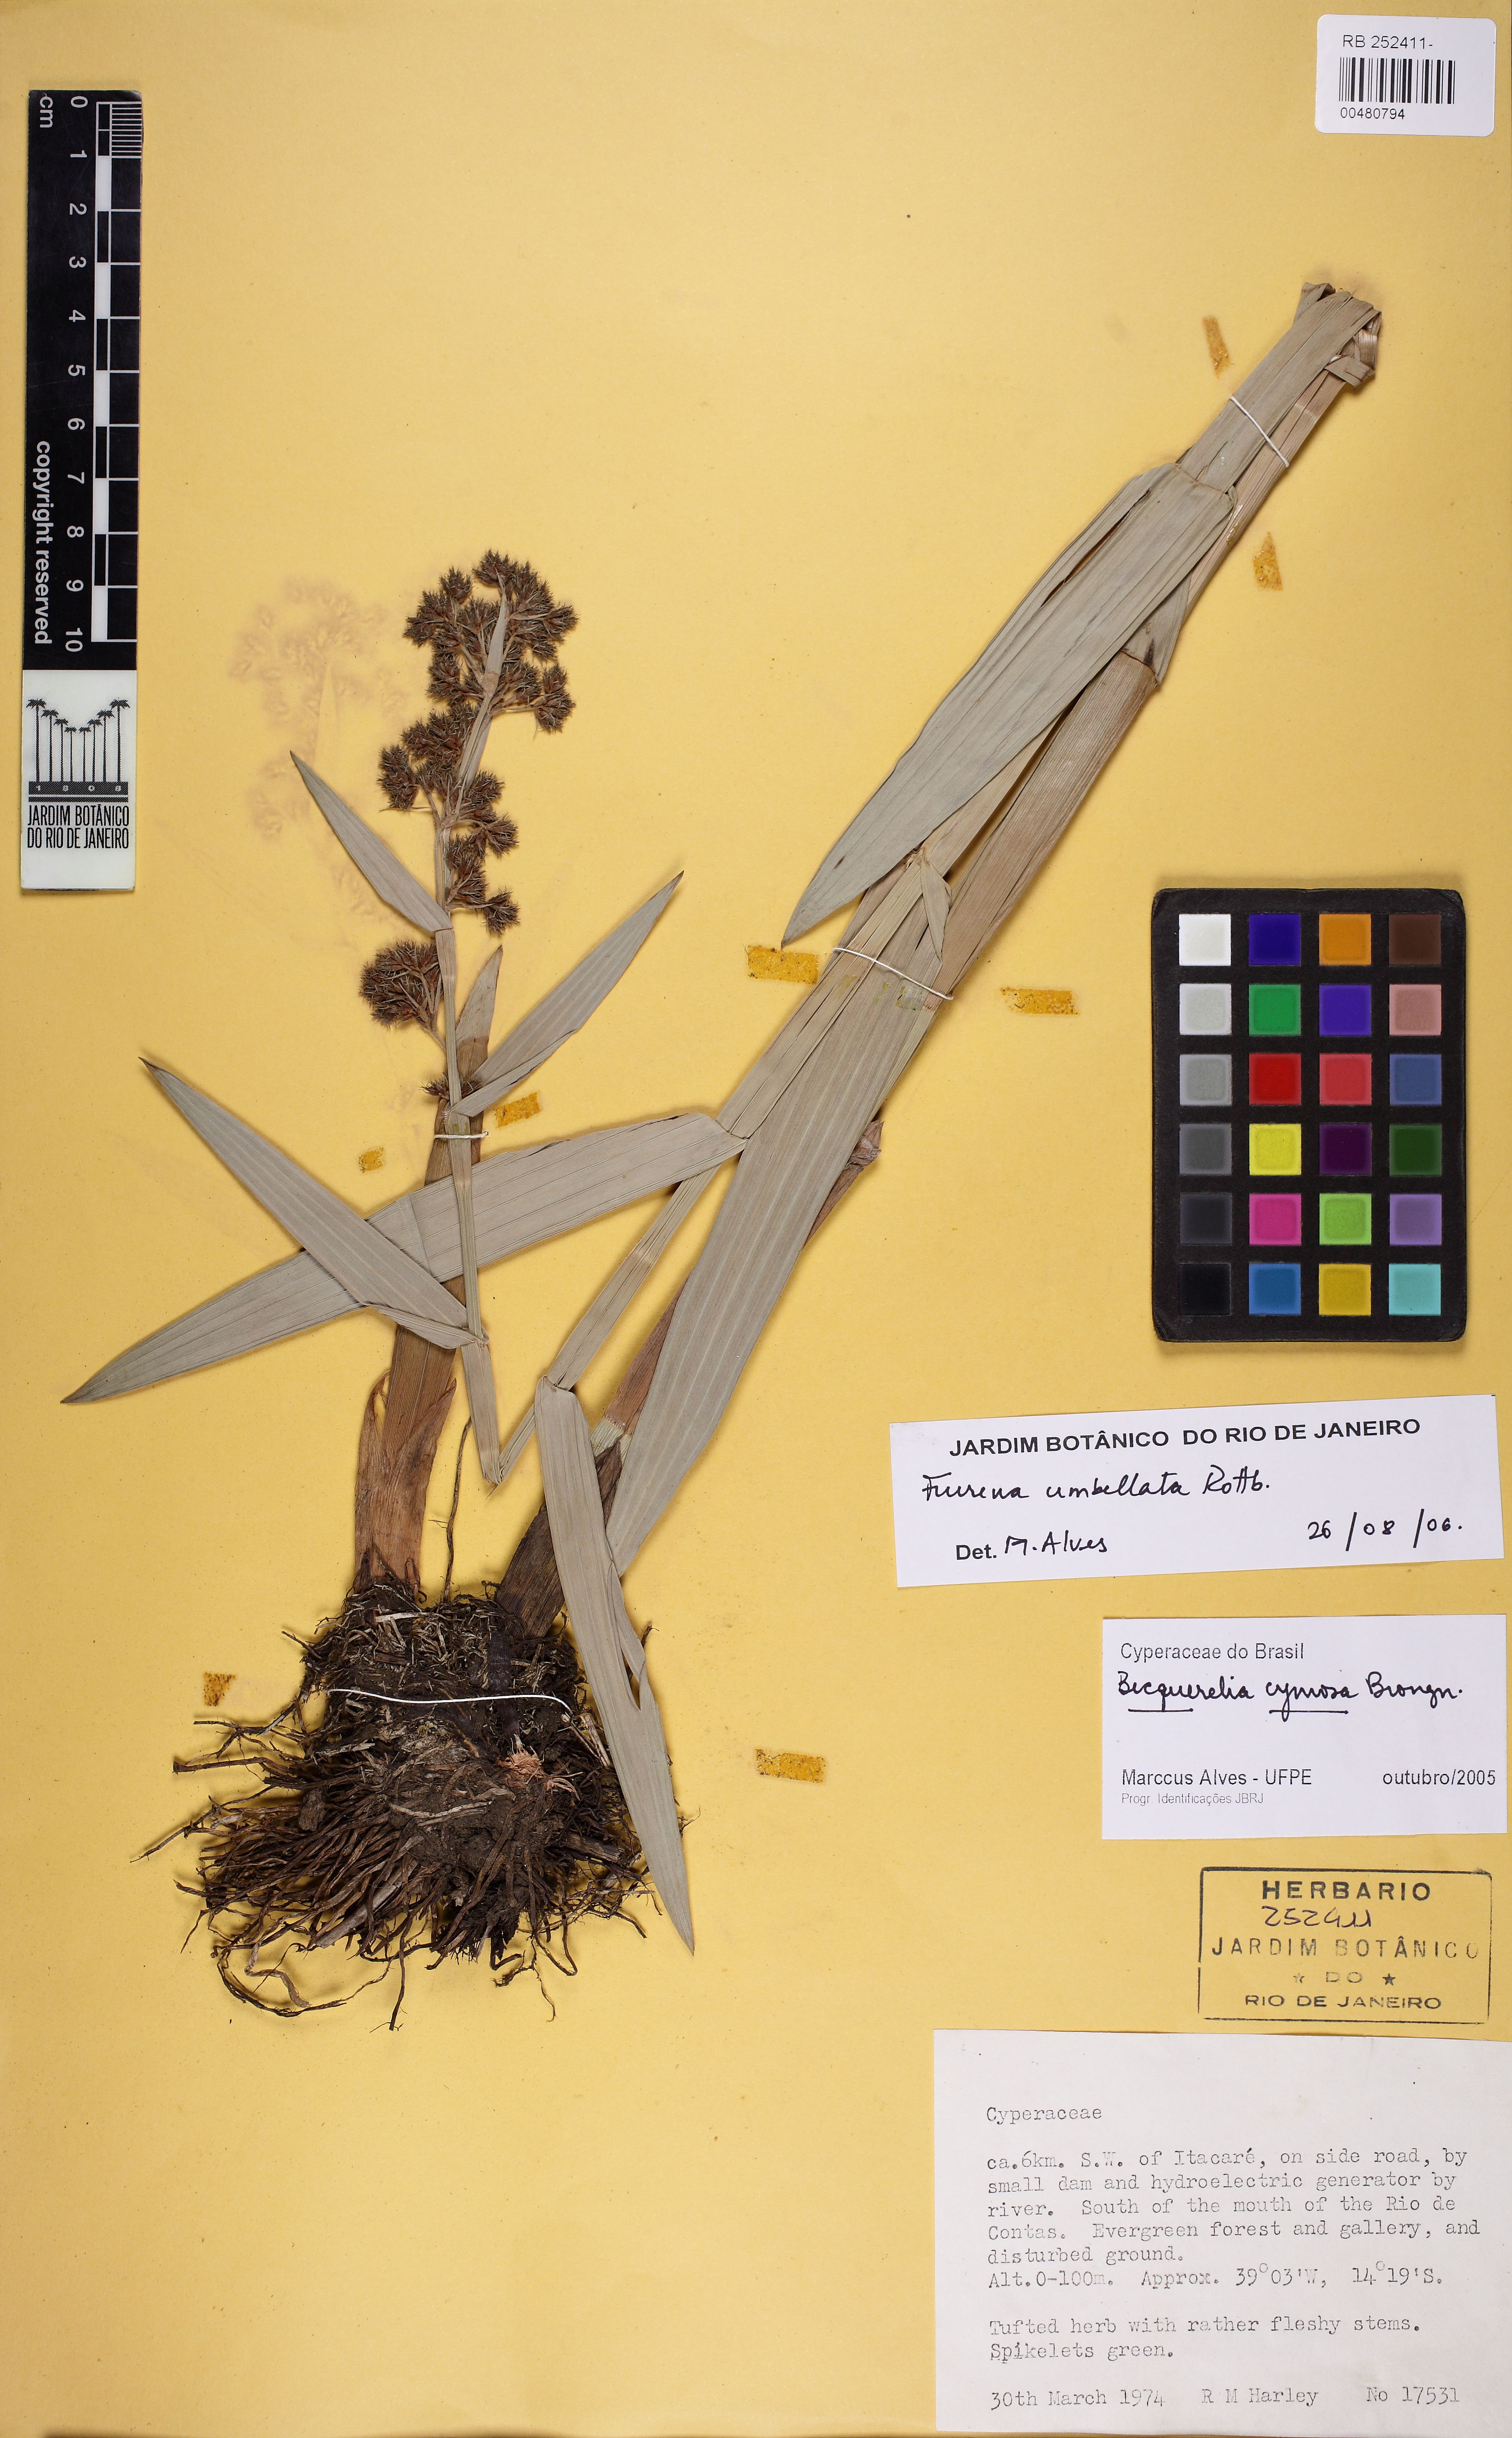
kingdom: Plantae
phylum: Tracheophyta
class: Liliopsida
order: Poales
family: Cyperaceae
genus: Fuirena
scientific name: Fuirena umbellata
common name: Yefen
